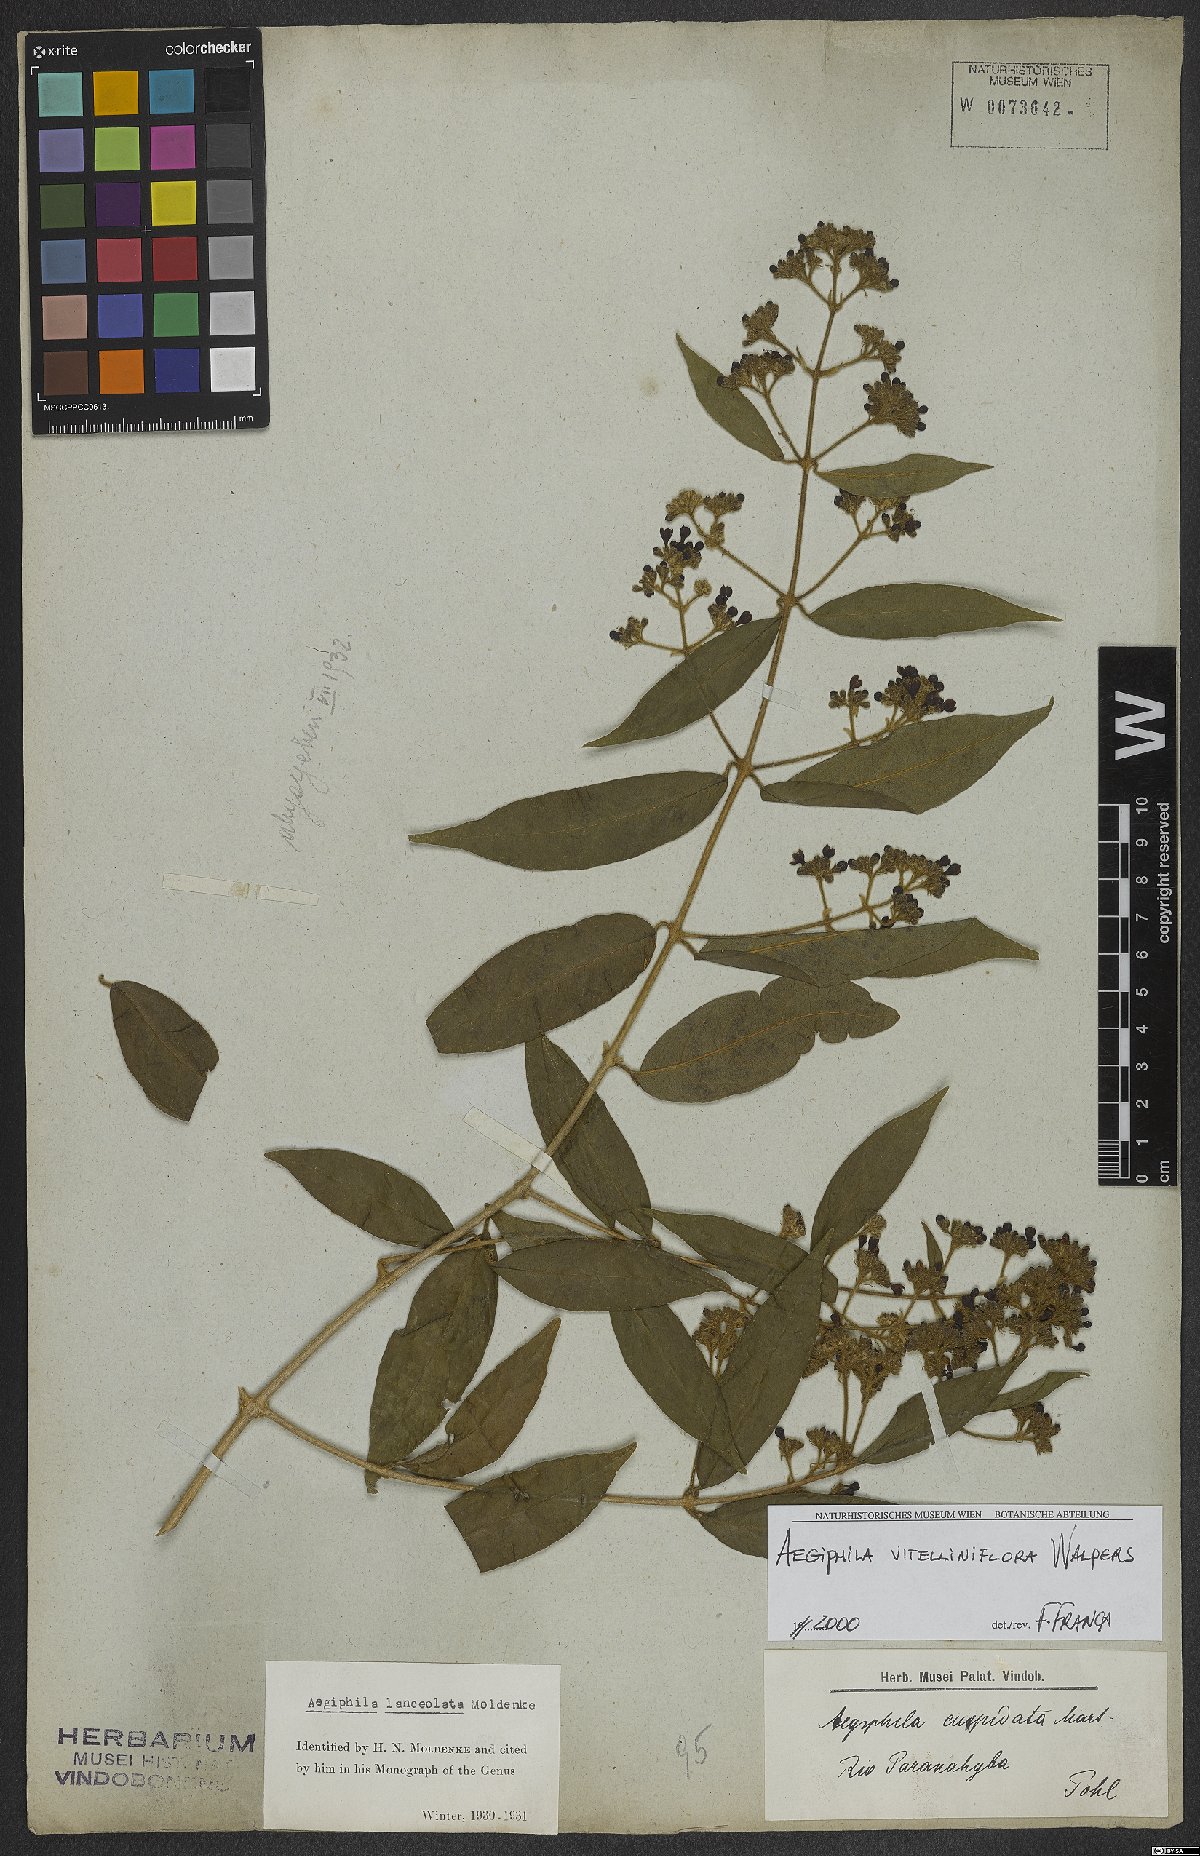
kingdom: Plantae
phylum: Tracheophyta
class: Magnoliopsida
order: Lamiales
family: Lamiaceae
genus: Aegiphila
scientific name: Aegiphila vitelliniflora
